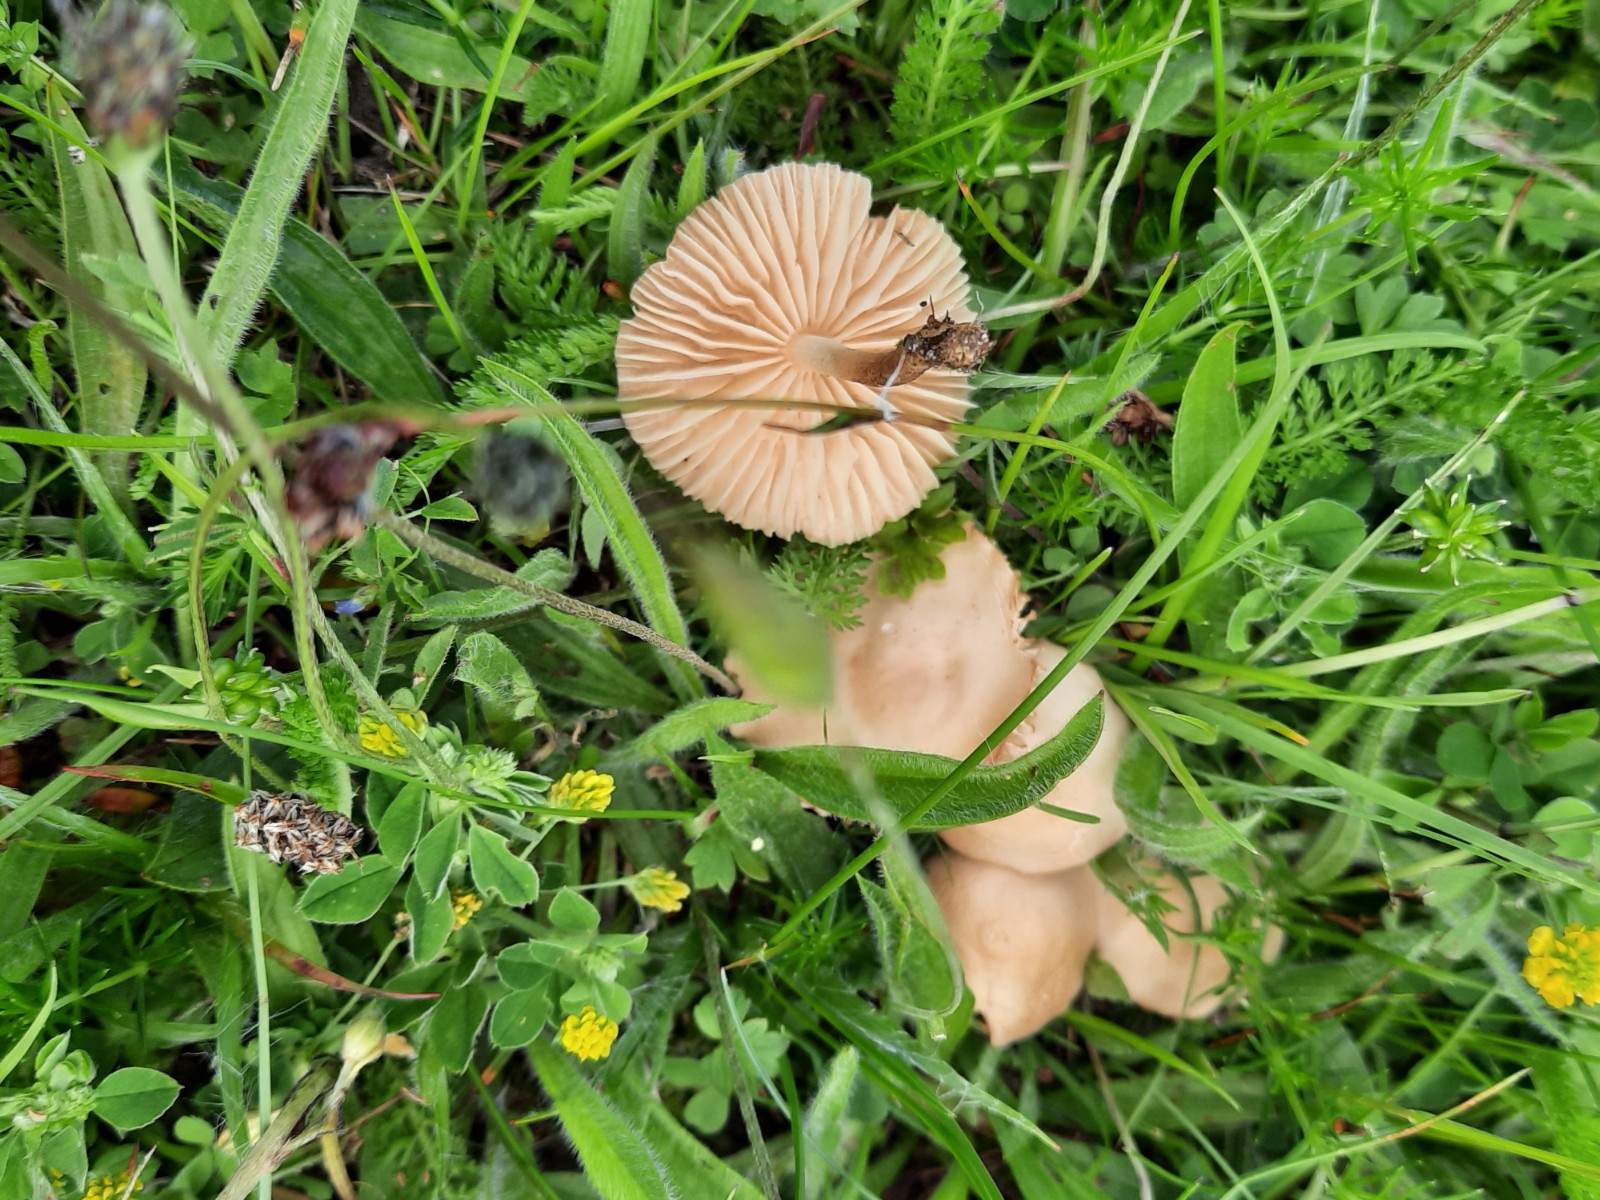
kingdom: Fungi
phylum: Basidiomycota
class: Agaricomycetes
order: Agaricales
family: Marasmiaceae
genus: Marasmius
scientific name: Marasmius oreades
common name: elledans-bruskhat
